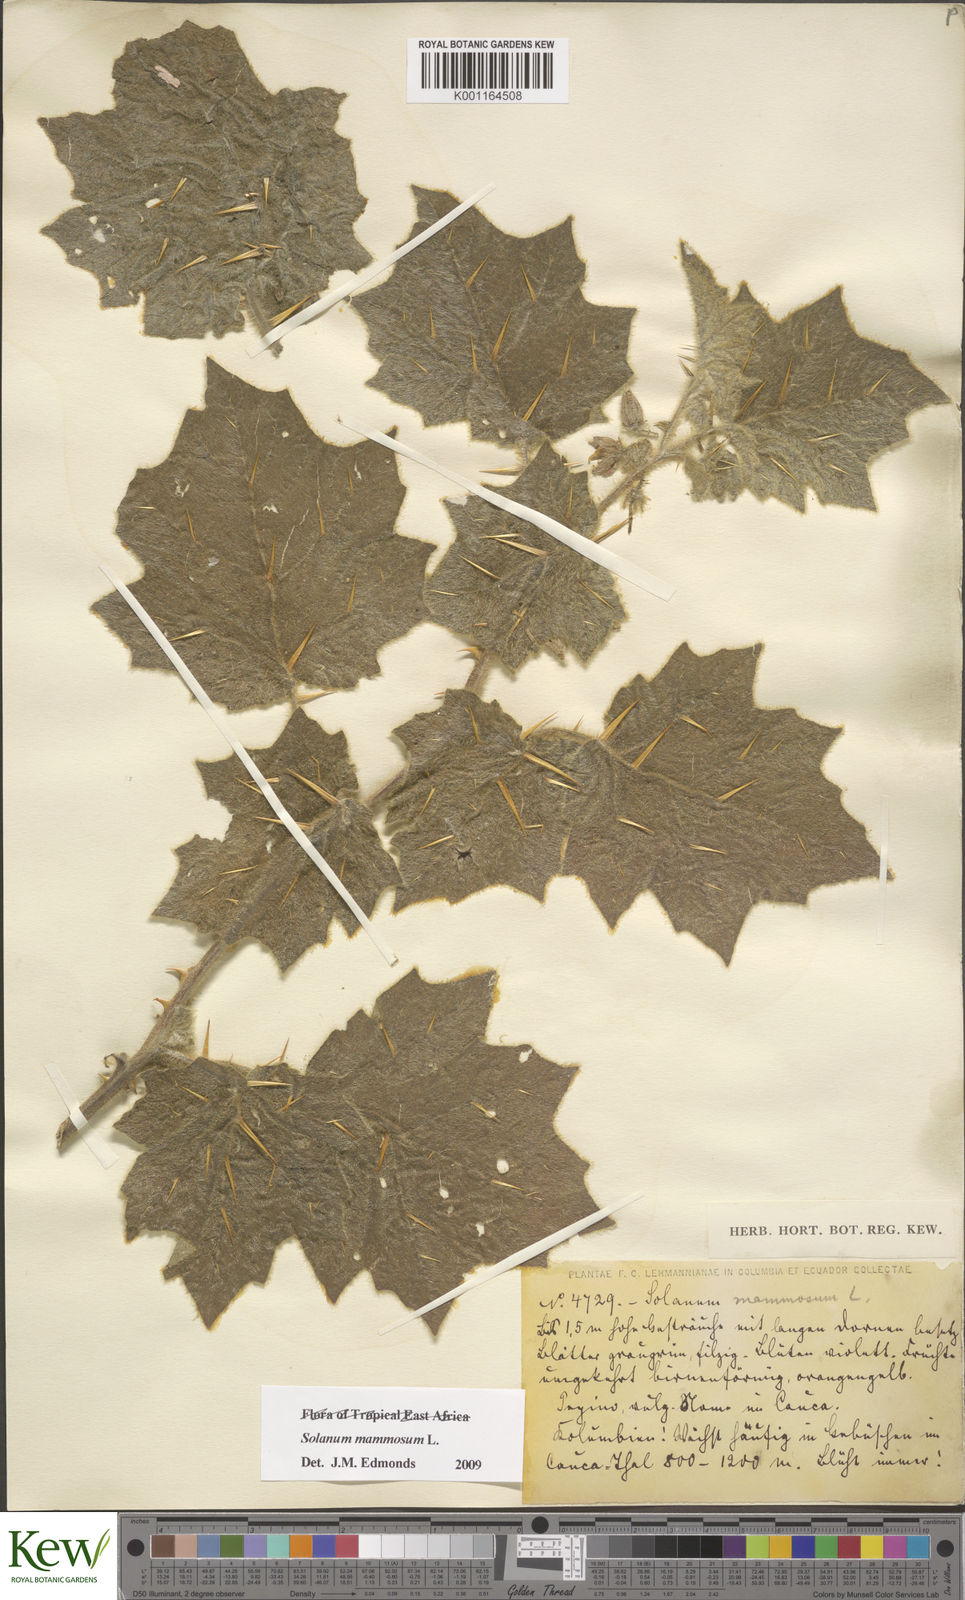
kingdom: Plantae
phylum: Tracheophyta
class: Magnoliopsida
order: Solanales
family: Solanaceae
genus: Solanum
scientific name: Solanum mammosum
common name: Nipple fruit
